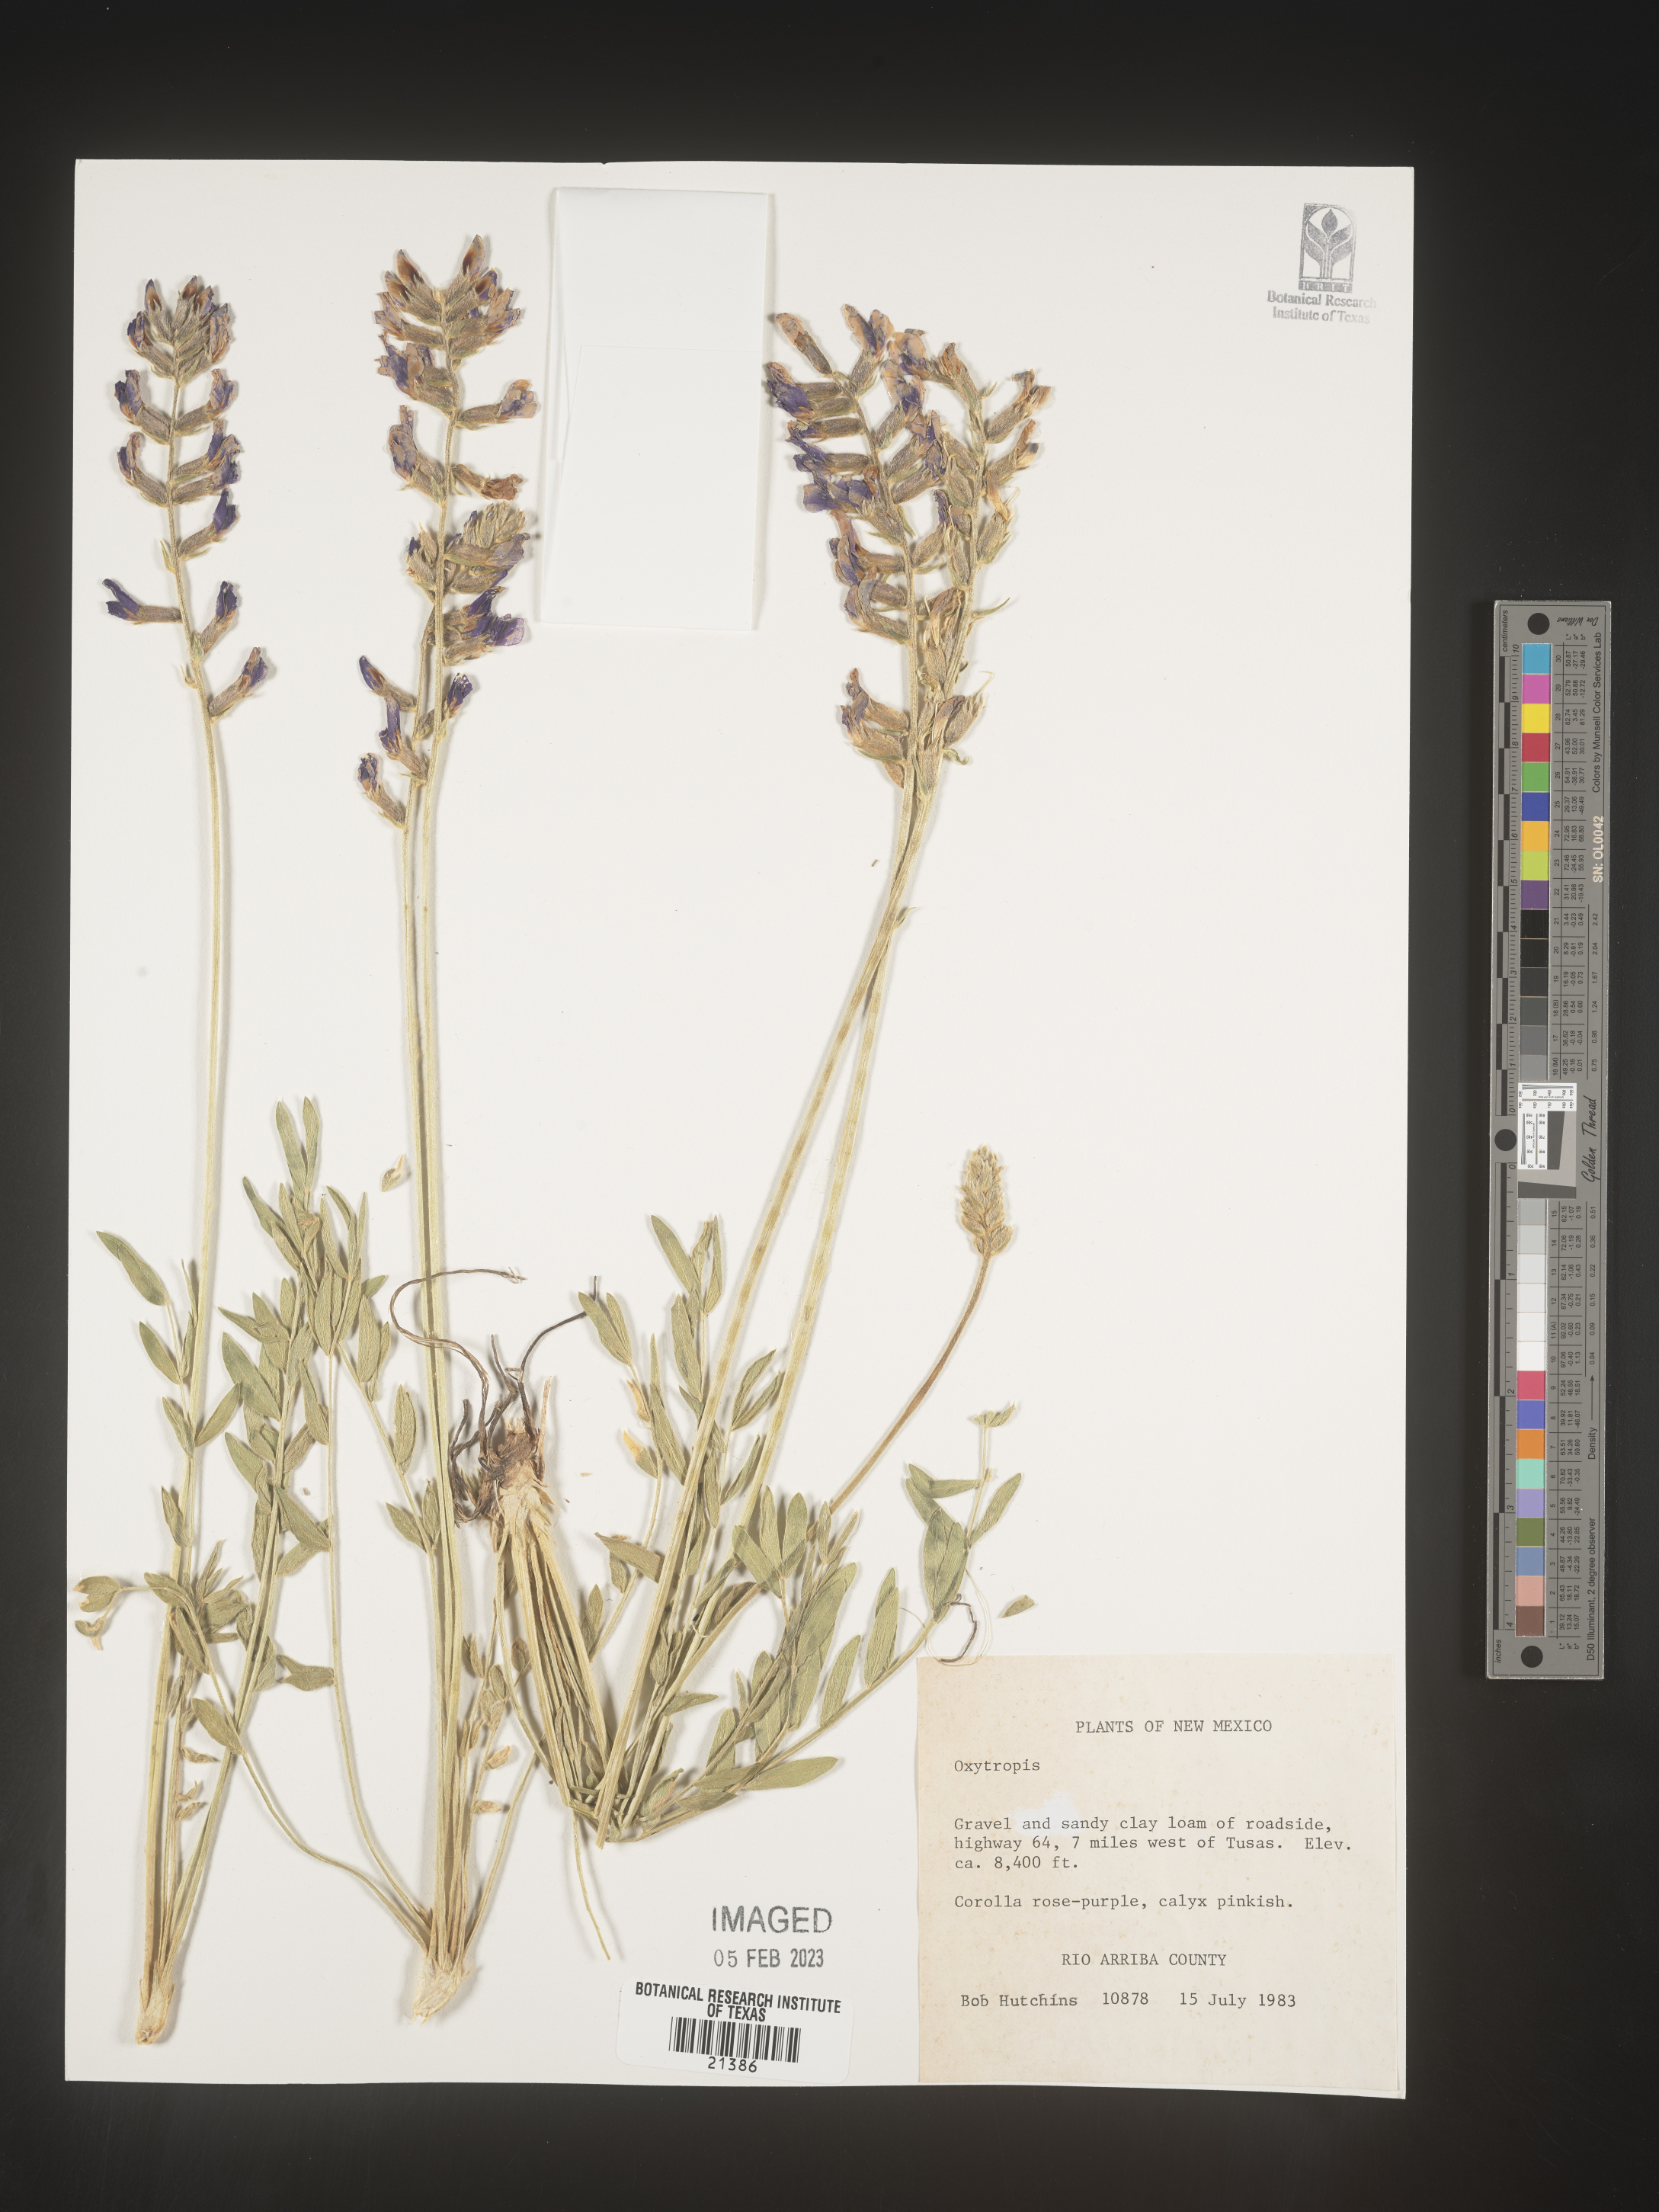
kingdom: Plantae
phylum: Tracheophyta
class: Magnoliopsida
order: Fabales
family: Fabaceae
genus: Oxytropis
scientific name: Oxytropis
